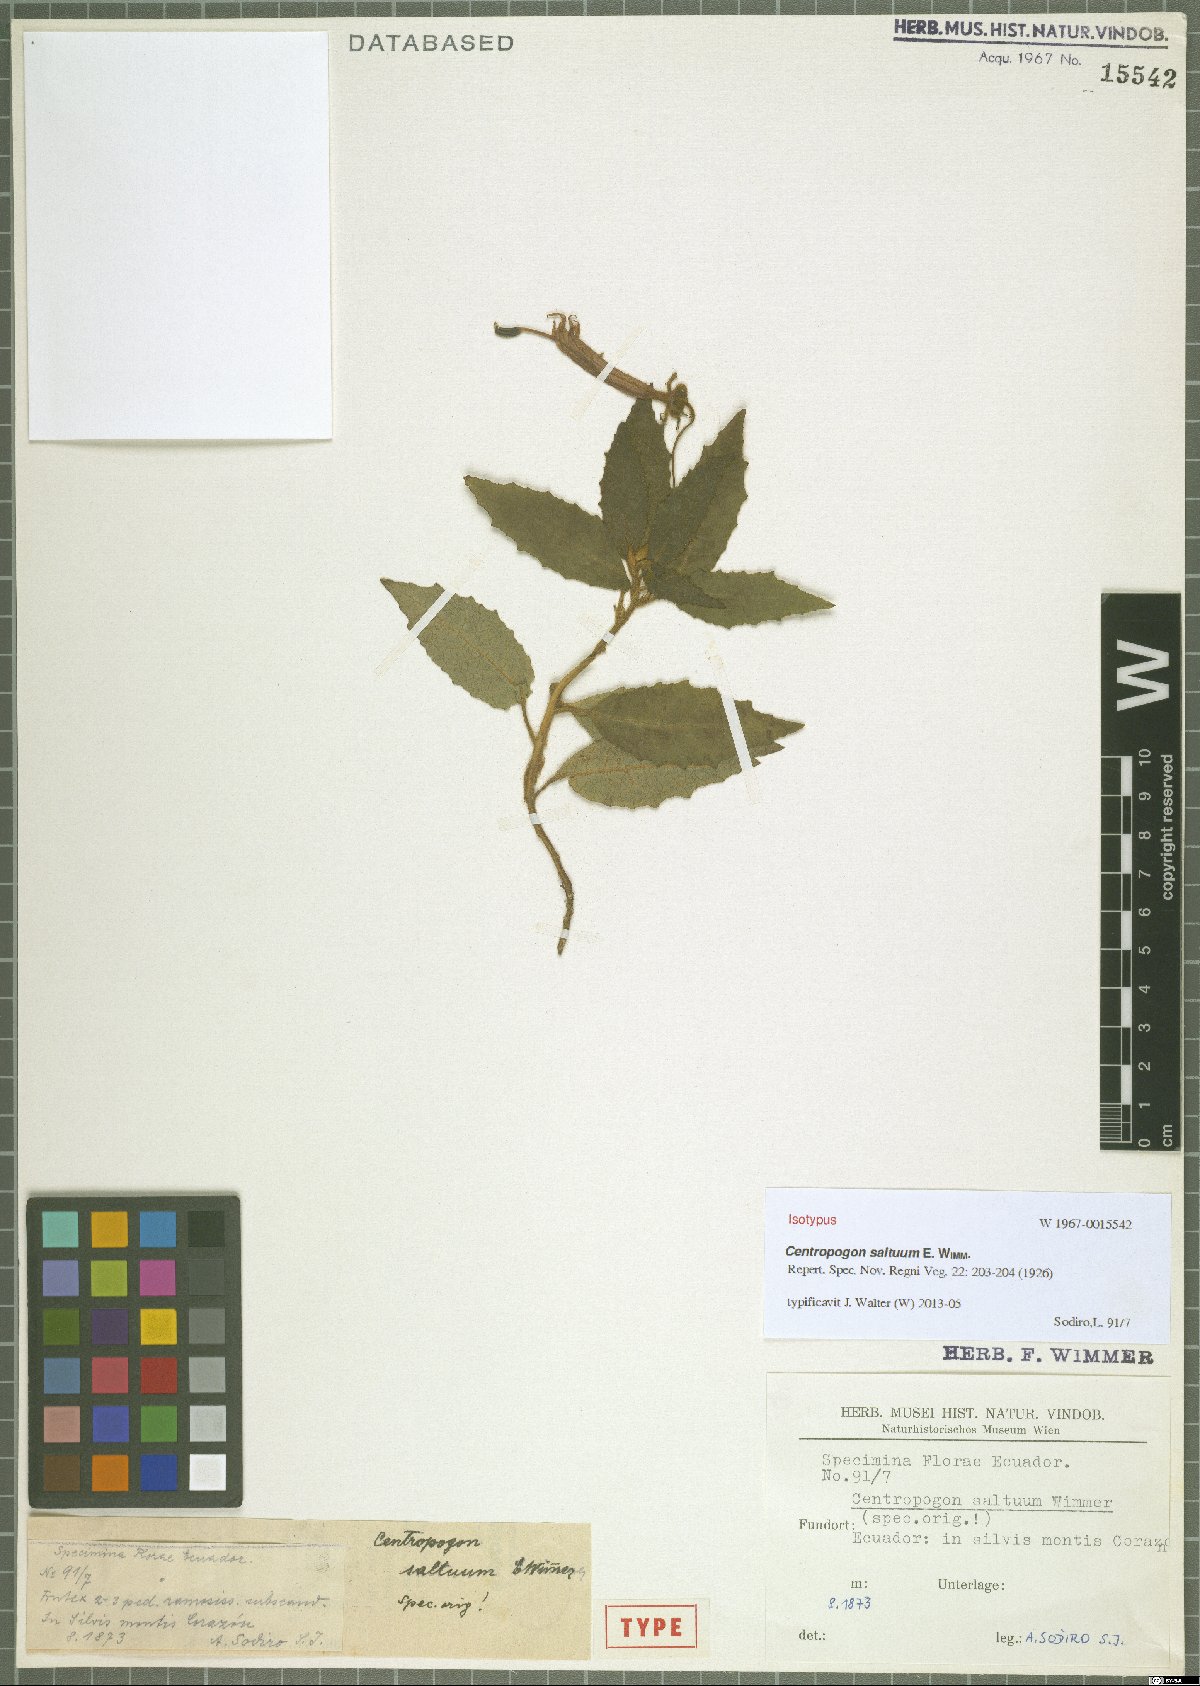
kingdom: Plantae
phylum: Tracheophyta
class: Magnoliopsida
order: Asterales
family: Campanulaceae
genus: Centropogon
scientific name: Centropogon saltuum
